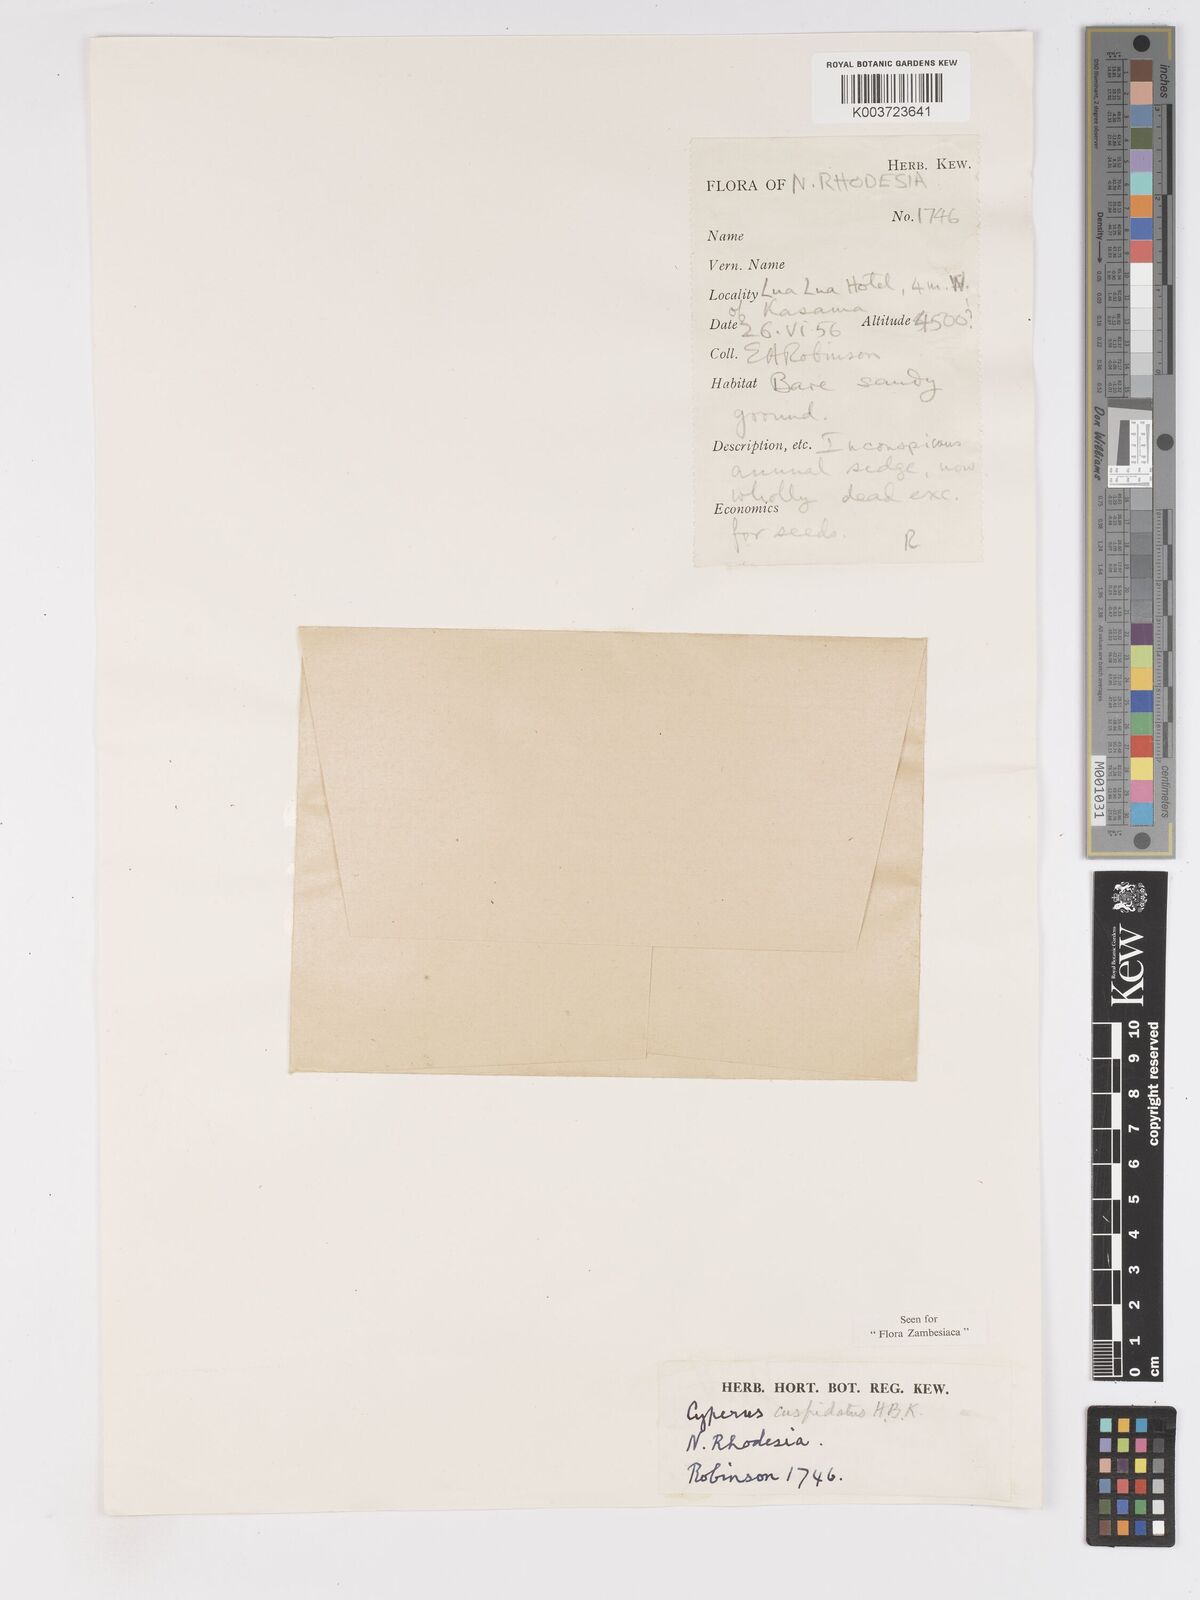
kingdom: Plantae
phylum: Tracheophyta
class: Liliopsida
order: Poales
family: Cyperaceae
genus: Cyperus
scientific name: Cyperus betafensis
